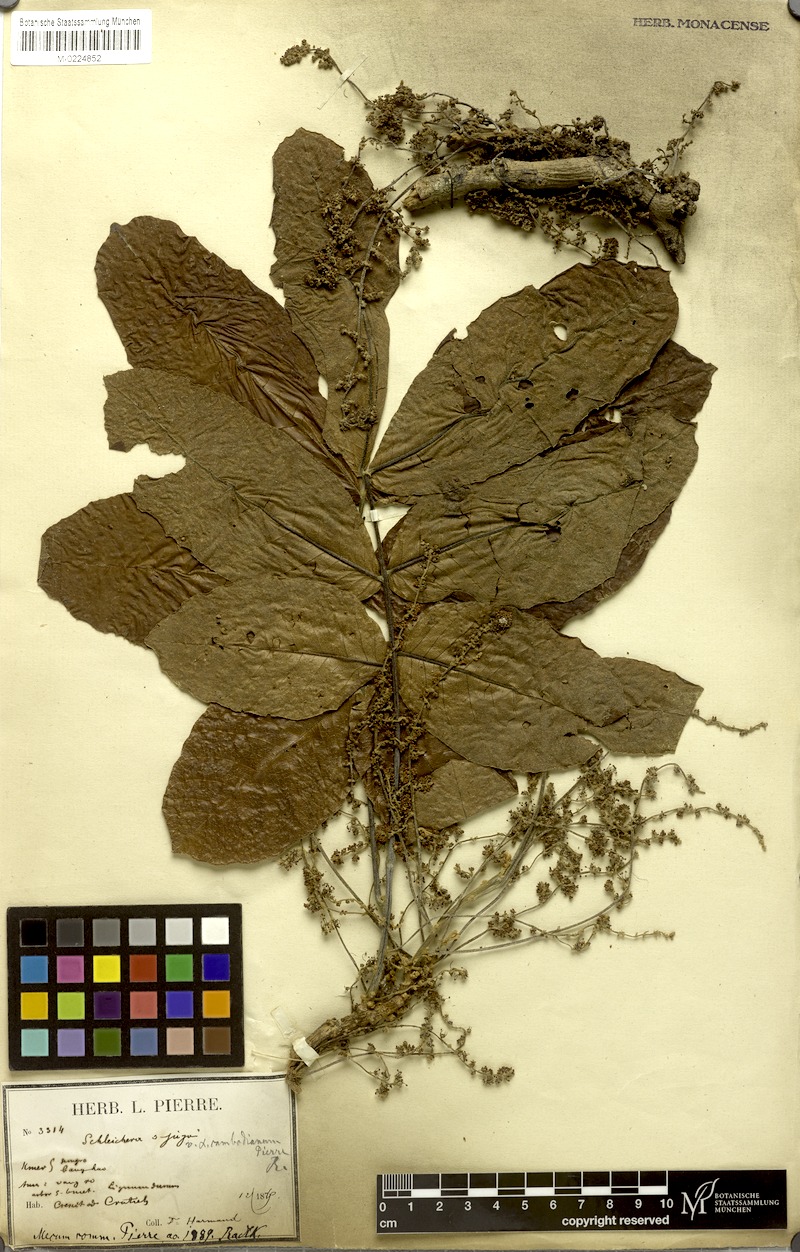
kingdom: Plantae
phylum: Tracheophyta
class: Magnoliopsida
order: Sapindales
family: Sapindaceae
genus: Schleichera
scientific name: Schleichera oleosa
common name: Malay lactree
